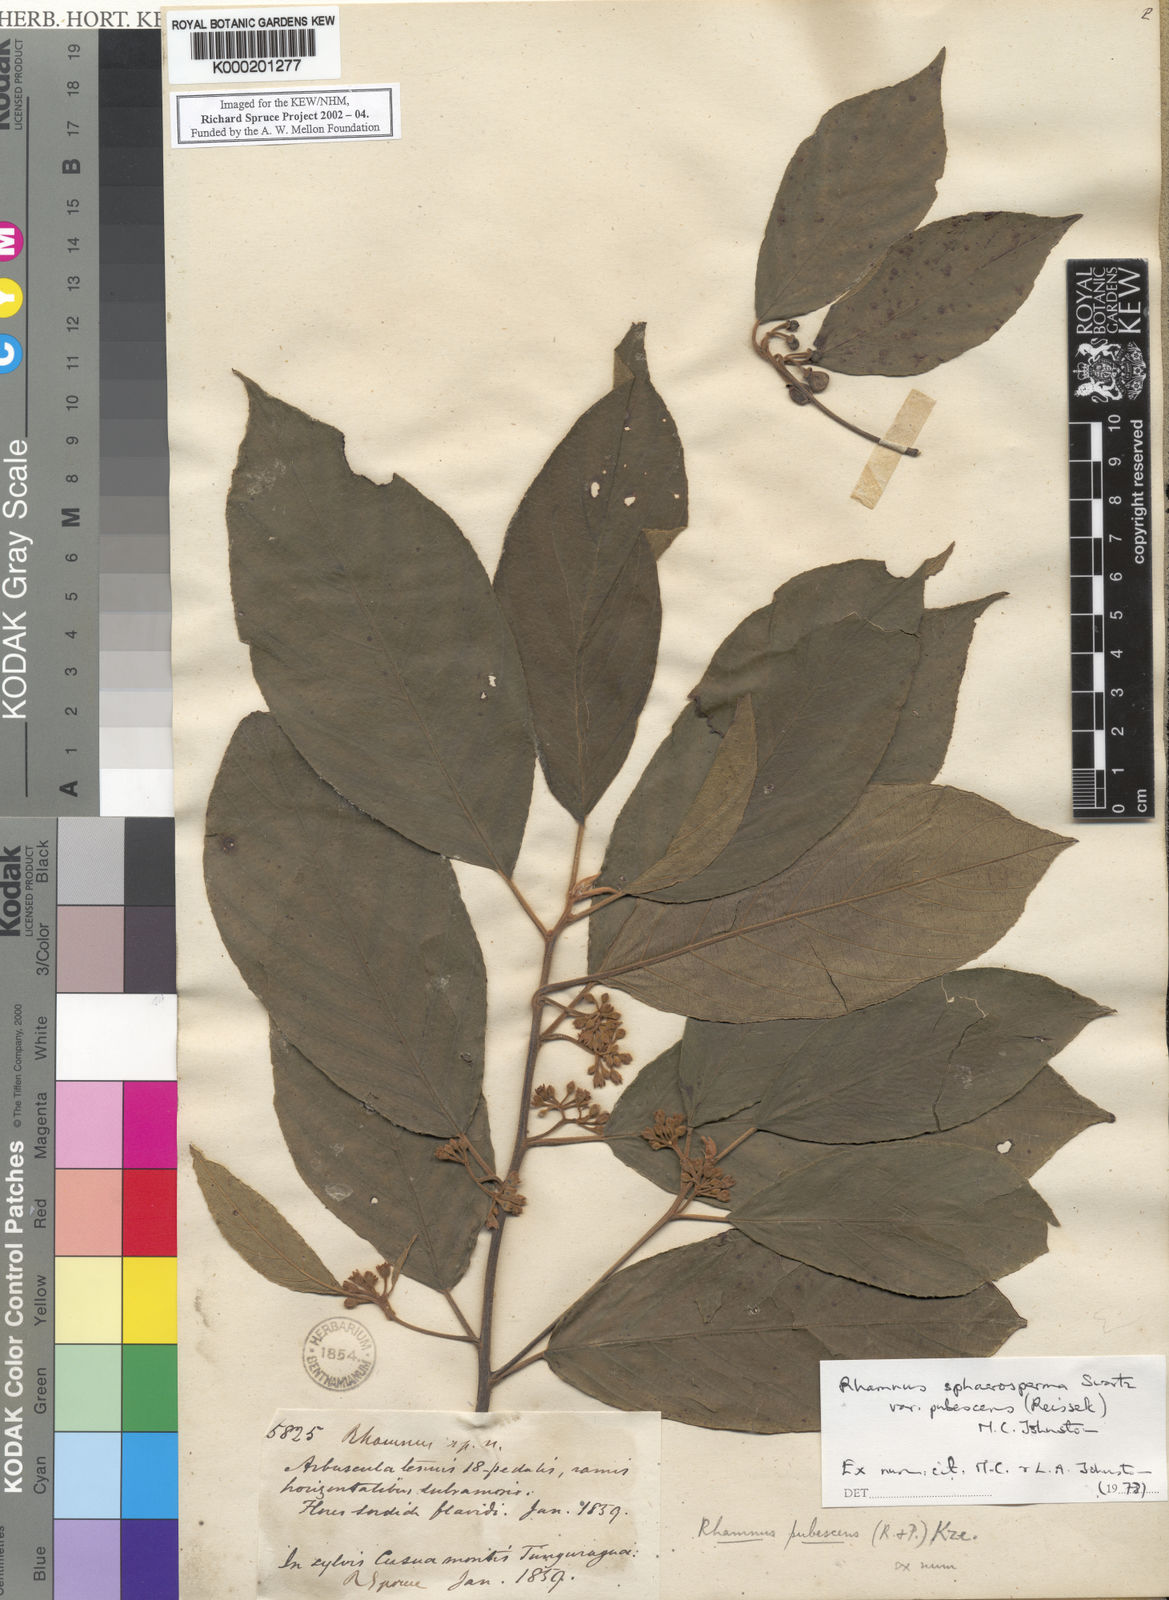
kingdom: Plantae
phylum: Tracheophyta
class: Magnoliopsida
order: Rosales
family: Rhamnaceae
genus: Frangula
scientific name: Frangula
